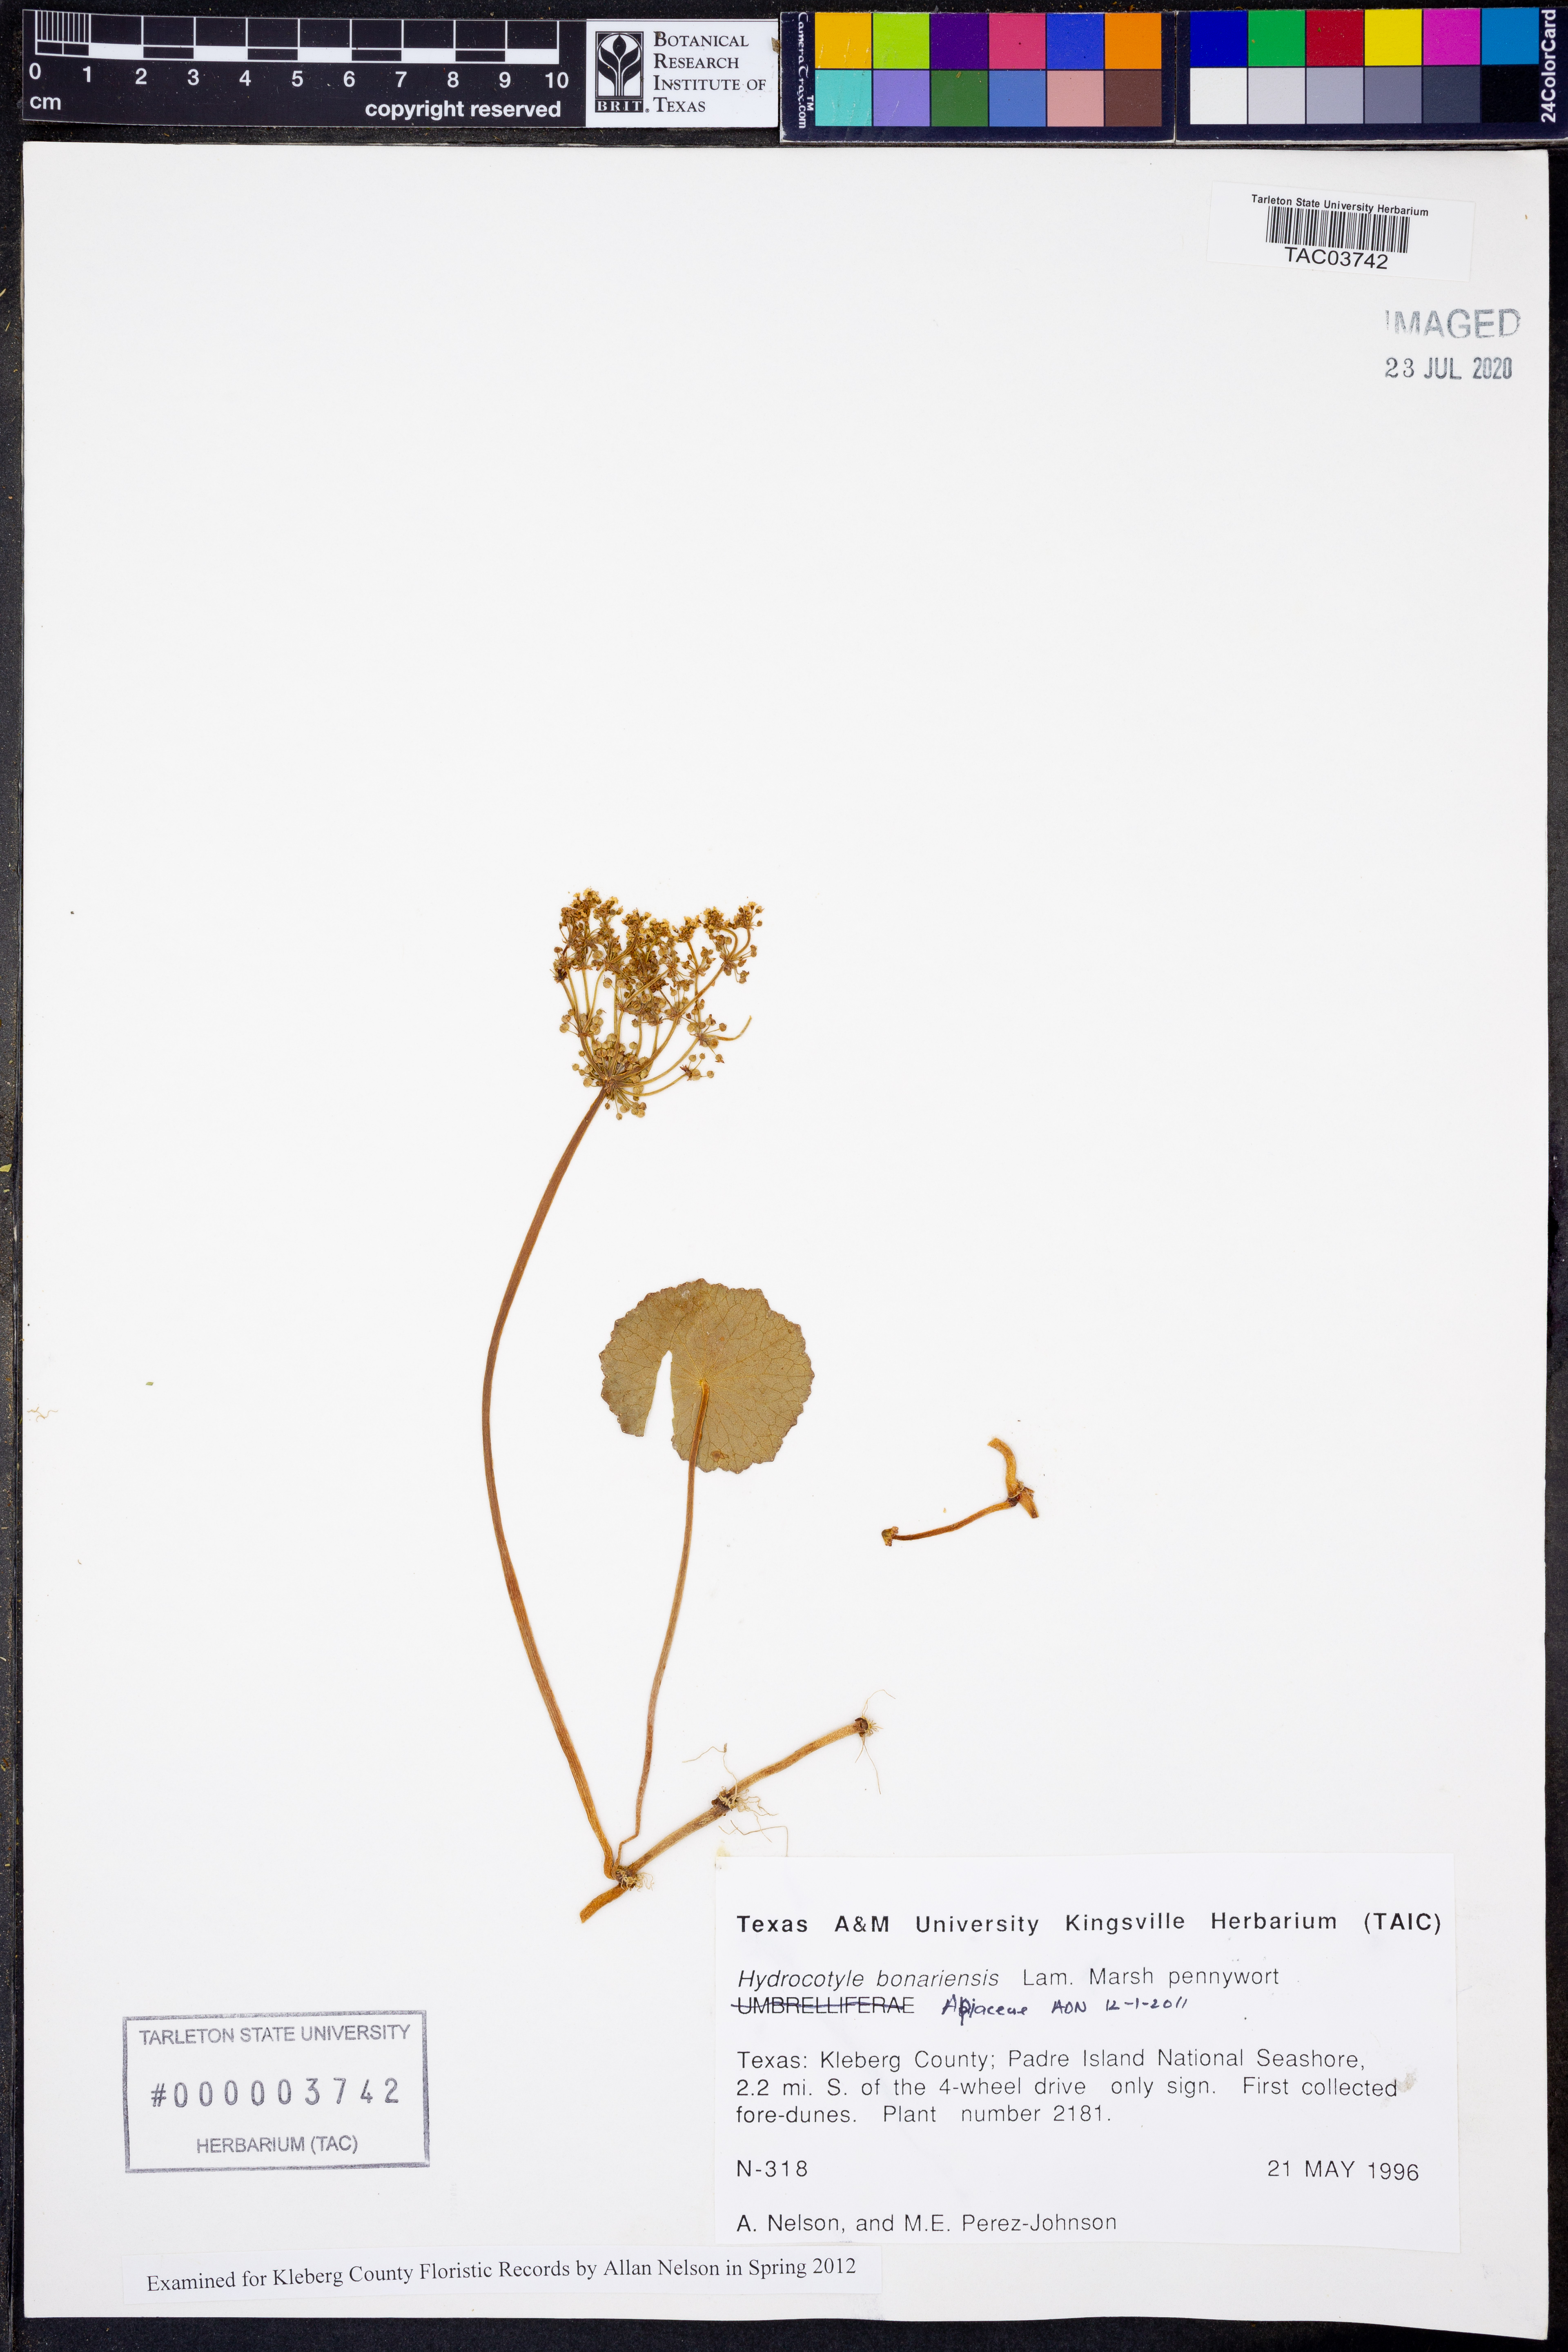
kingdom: Plantae
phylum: Tracheophyta
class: Magnoliopsida
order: Apiales
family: Araliaceae
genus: Hydrocotyle
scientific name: Hydrocotyle bonariensis
